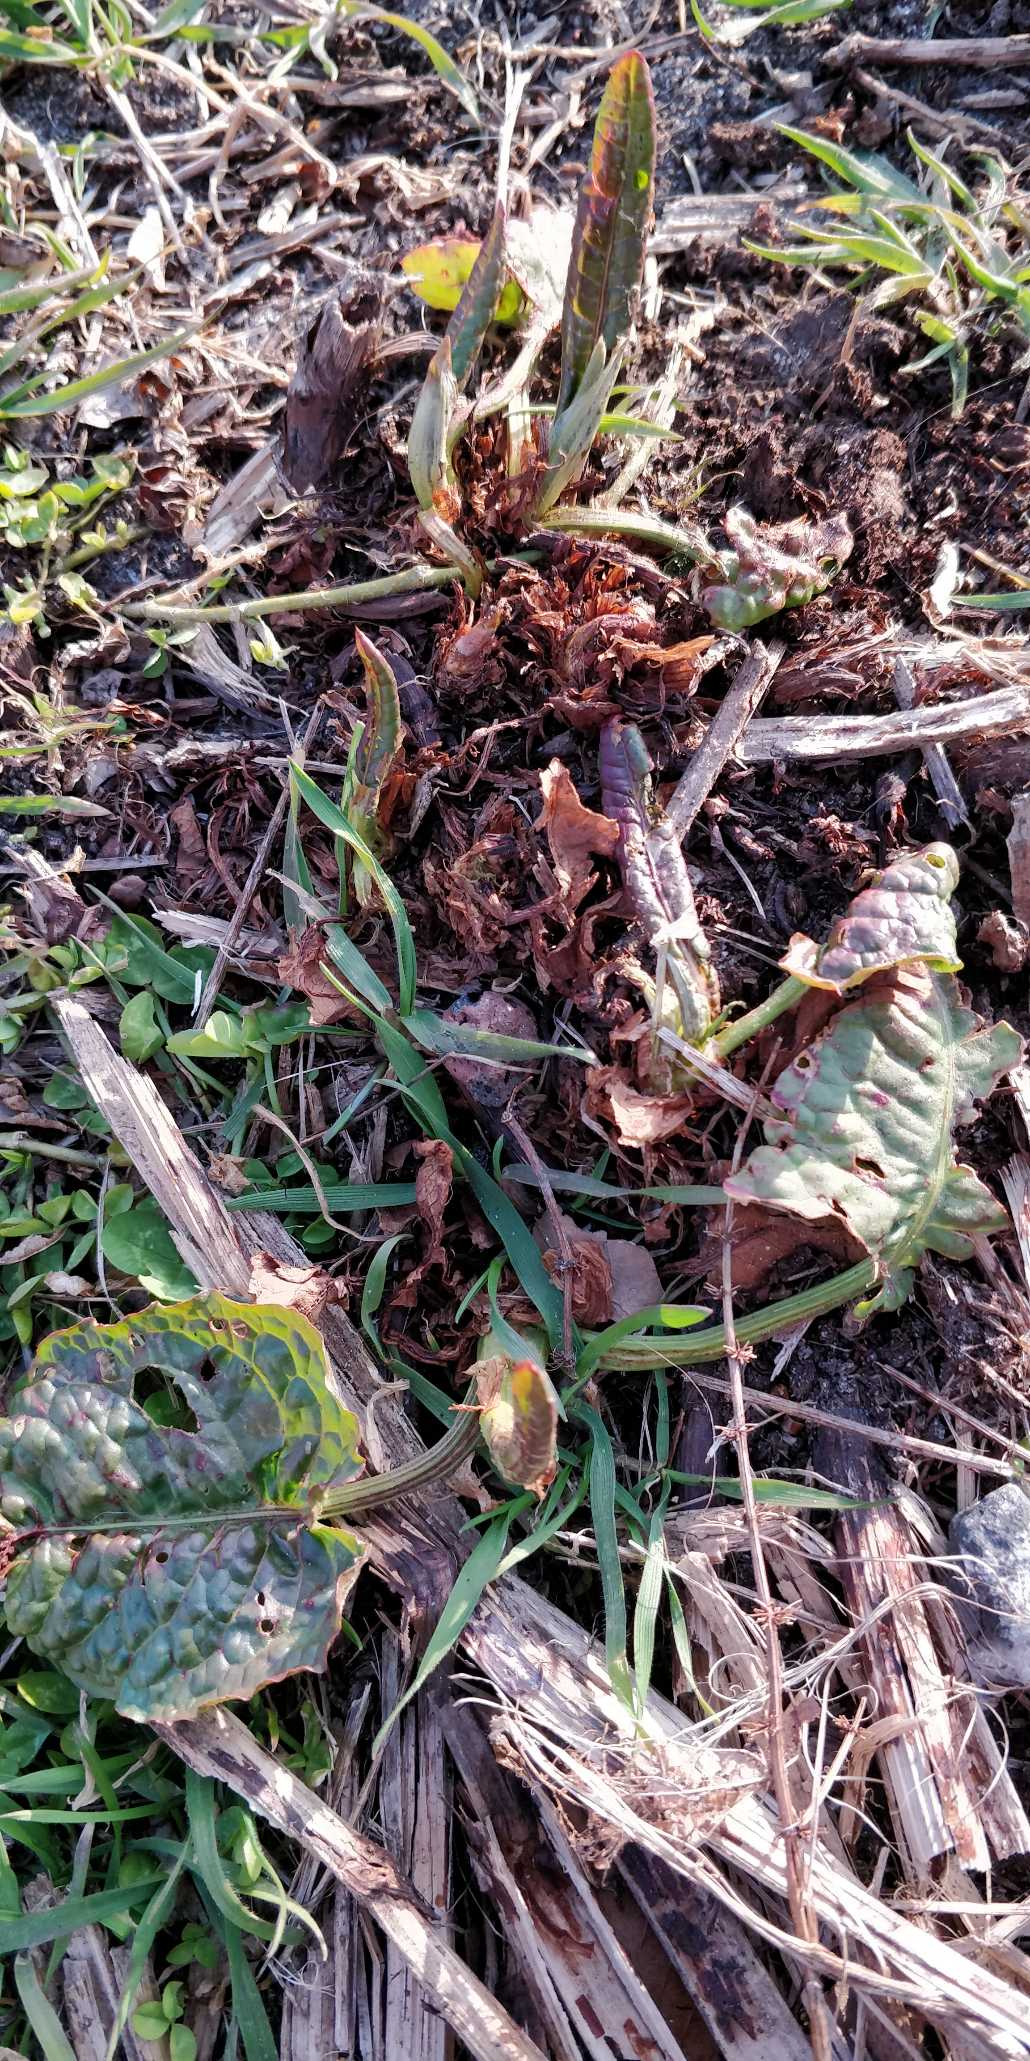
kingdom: Plantae
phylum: Tracheophyta
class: Magnoliopsida
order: Caryophyllales
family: Polygonaceae
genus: Rumex
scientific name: Rumex obtusifolius
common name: Butbladet skræppe
